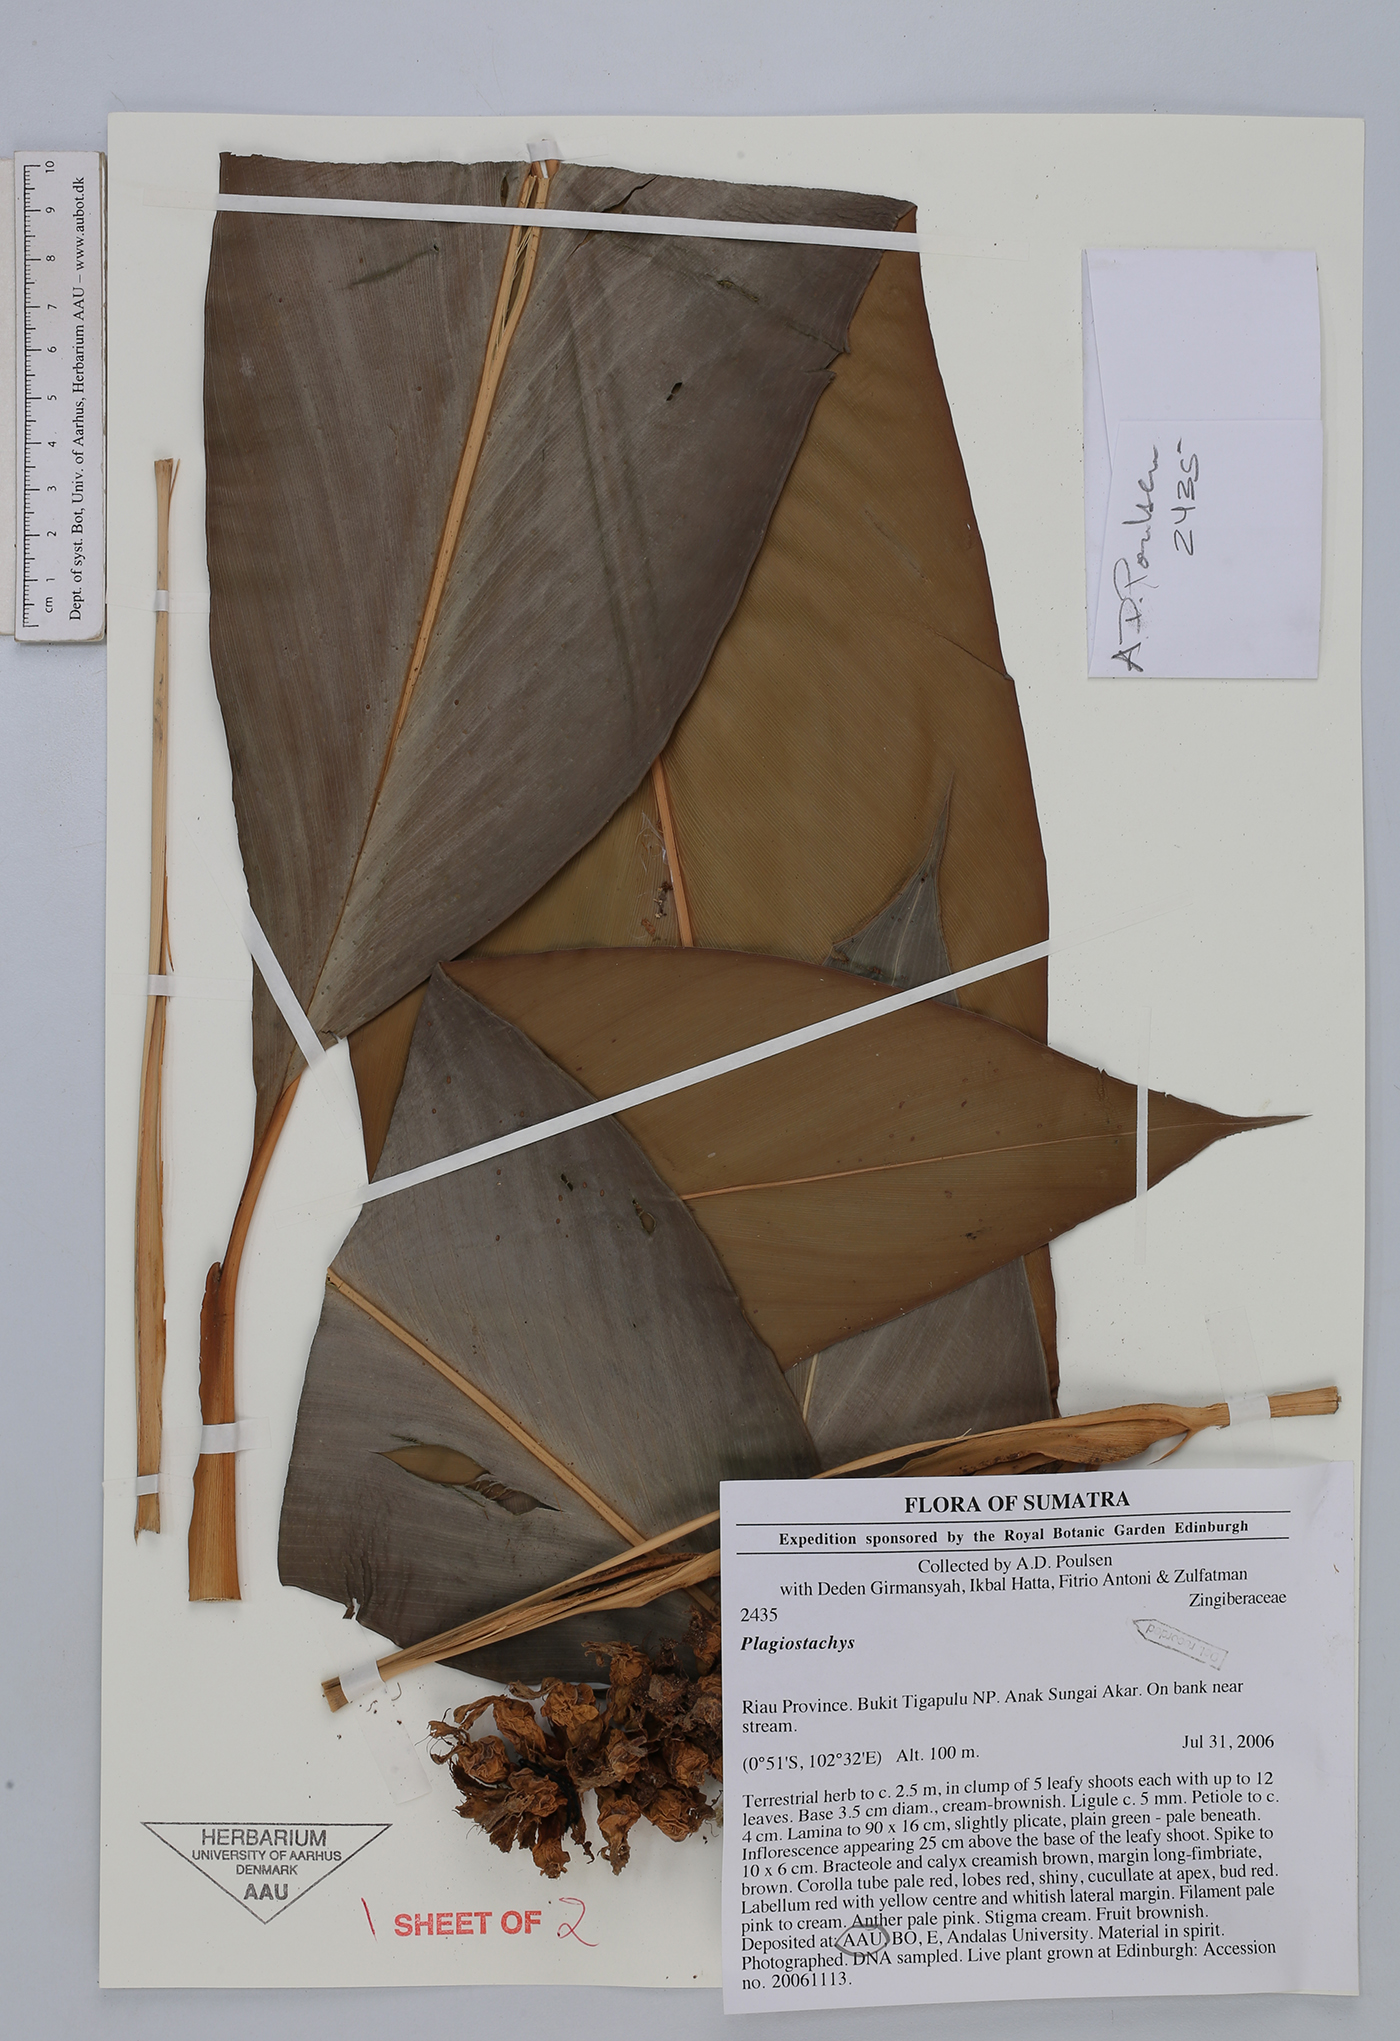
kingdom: Plantae
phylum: Tracheophyta
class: Liliopsida
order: Zingiberales
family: Zingiberaceae
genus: Plagiostachys
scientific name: Plagiostachys
